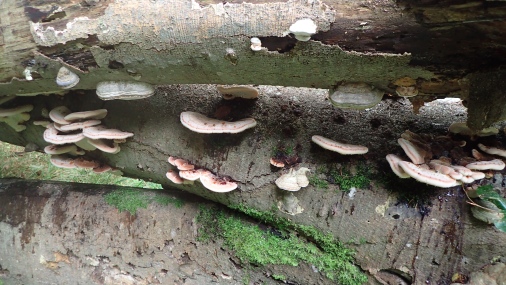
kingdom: Fungi
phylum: Basidiomycota
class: Agaricomycetes
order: Polyporales
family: Ischnodermataceae
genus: Ischnoderma
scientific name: Ischnoderma resinosum
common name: løv-tjæreporesvamp
